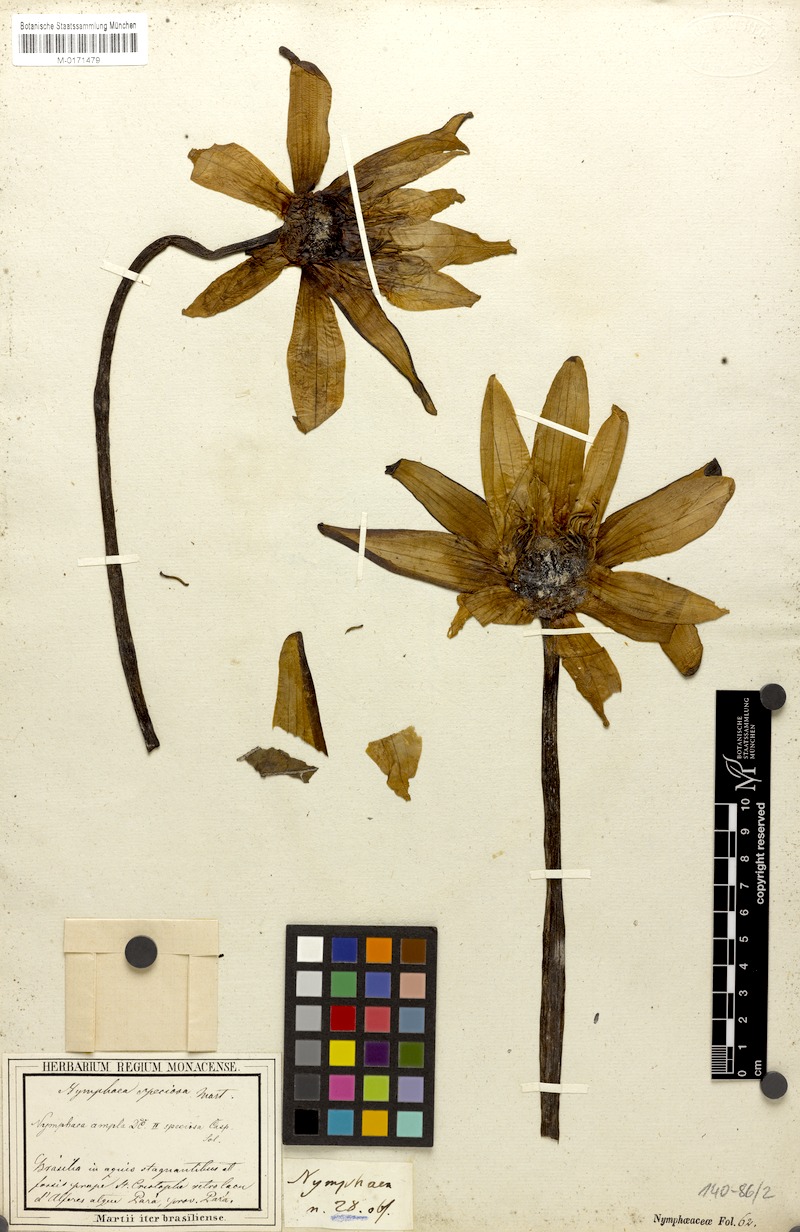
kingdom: Plantae
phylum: Tracheophyta
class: Magnoliopsida
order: Nymphaeales
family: Nymphaeaceae
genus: Nymphaea
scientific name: Nymphaea pulchella
